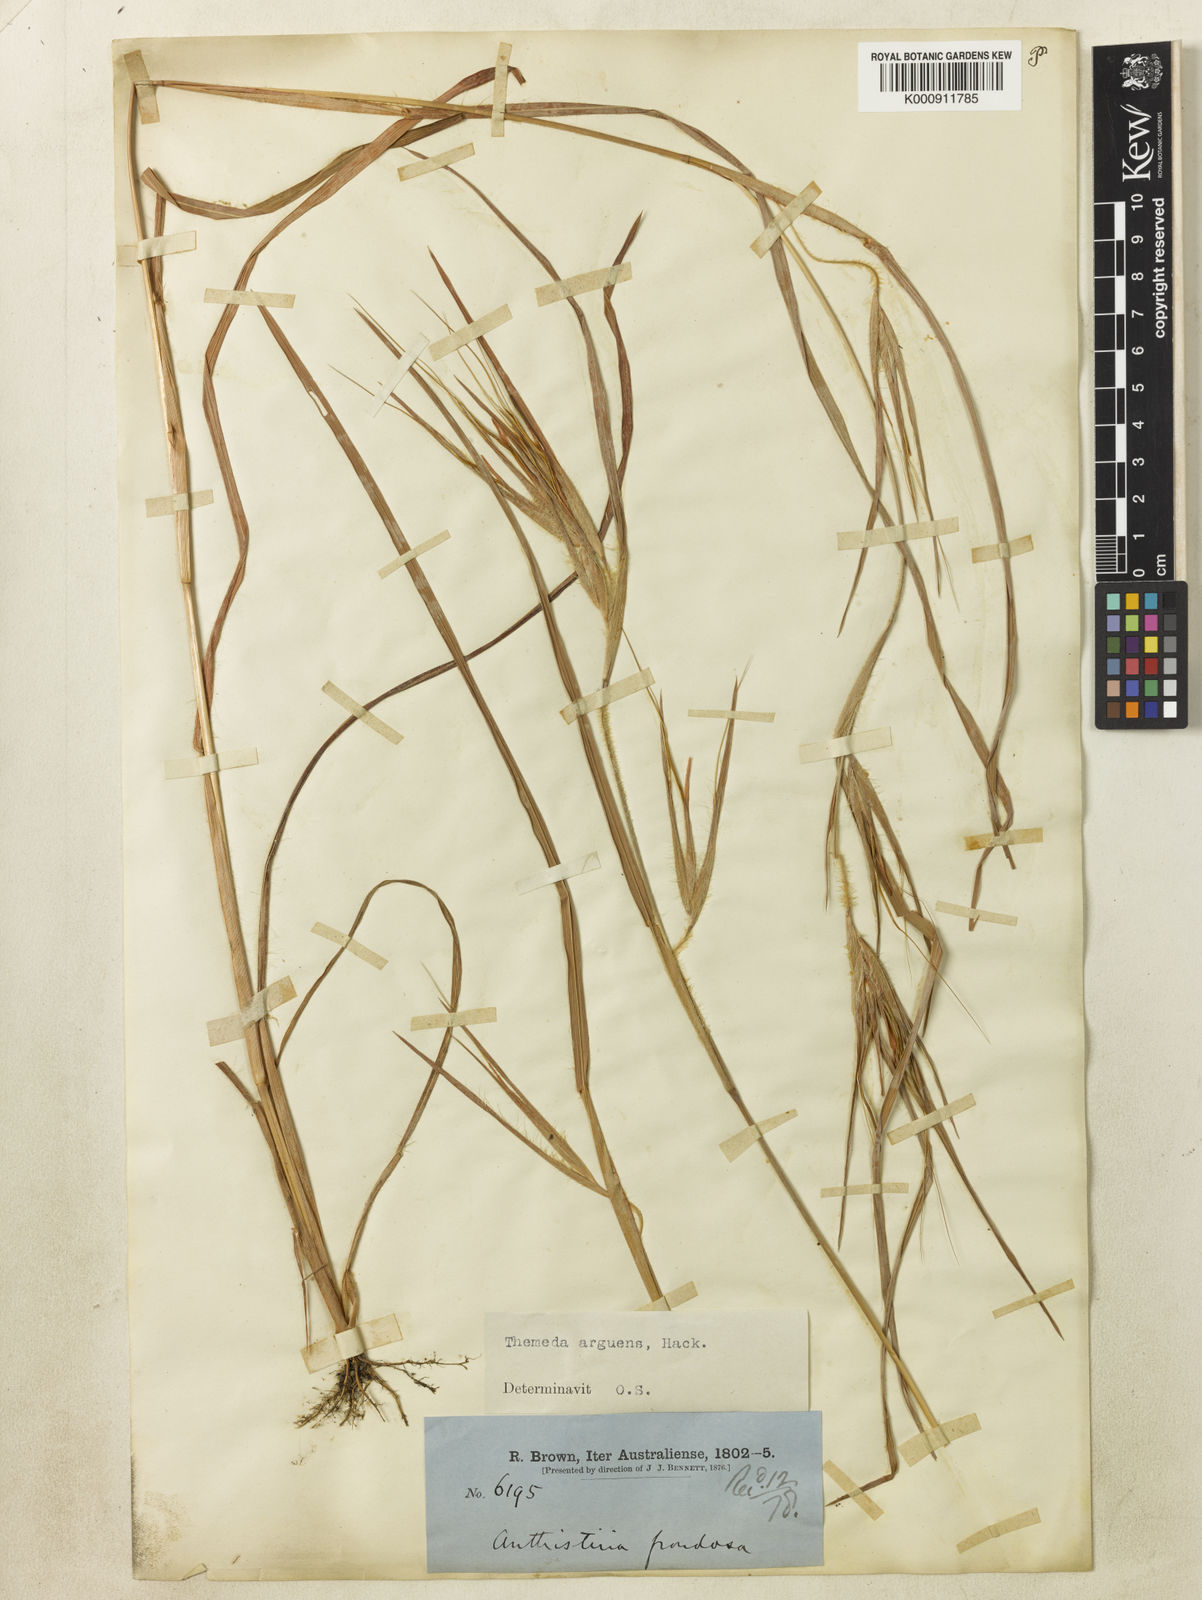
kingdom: Plantae
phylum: Tracheophyta
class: Liliopsida
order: Poales
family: Poaceae
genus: Themeda
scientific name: Themeda arguens
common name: Christmas grass
